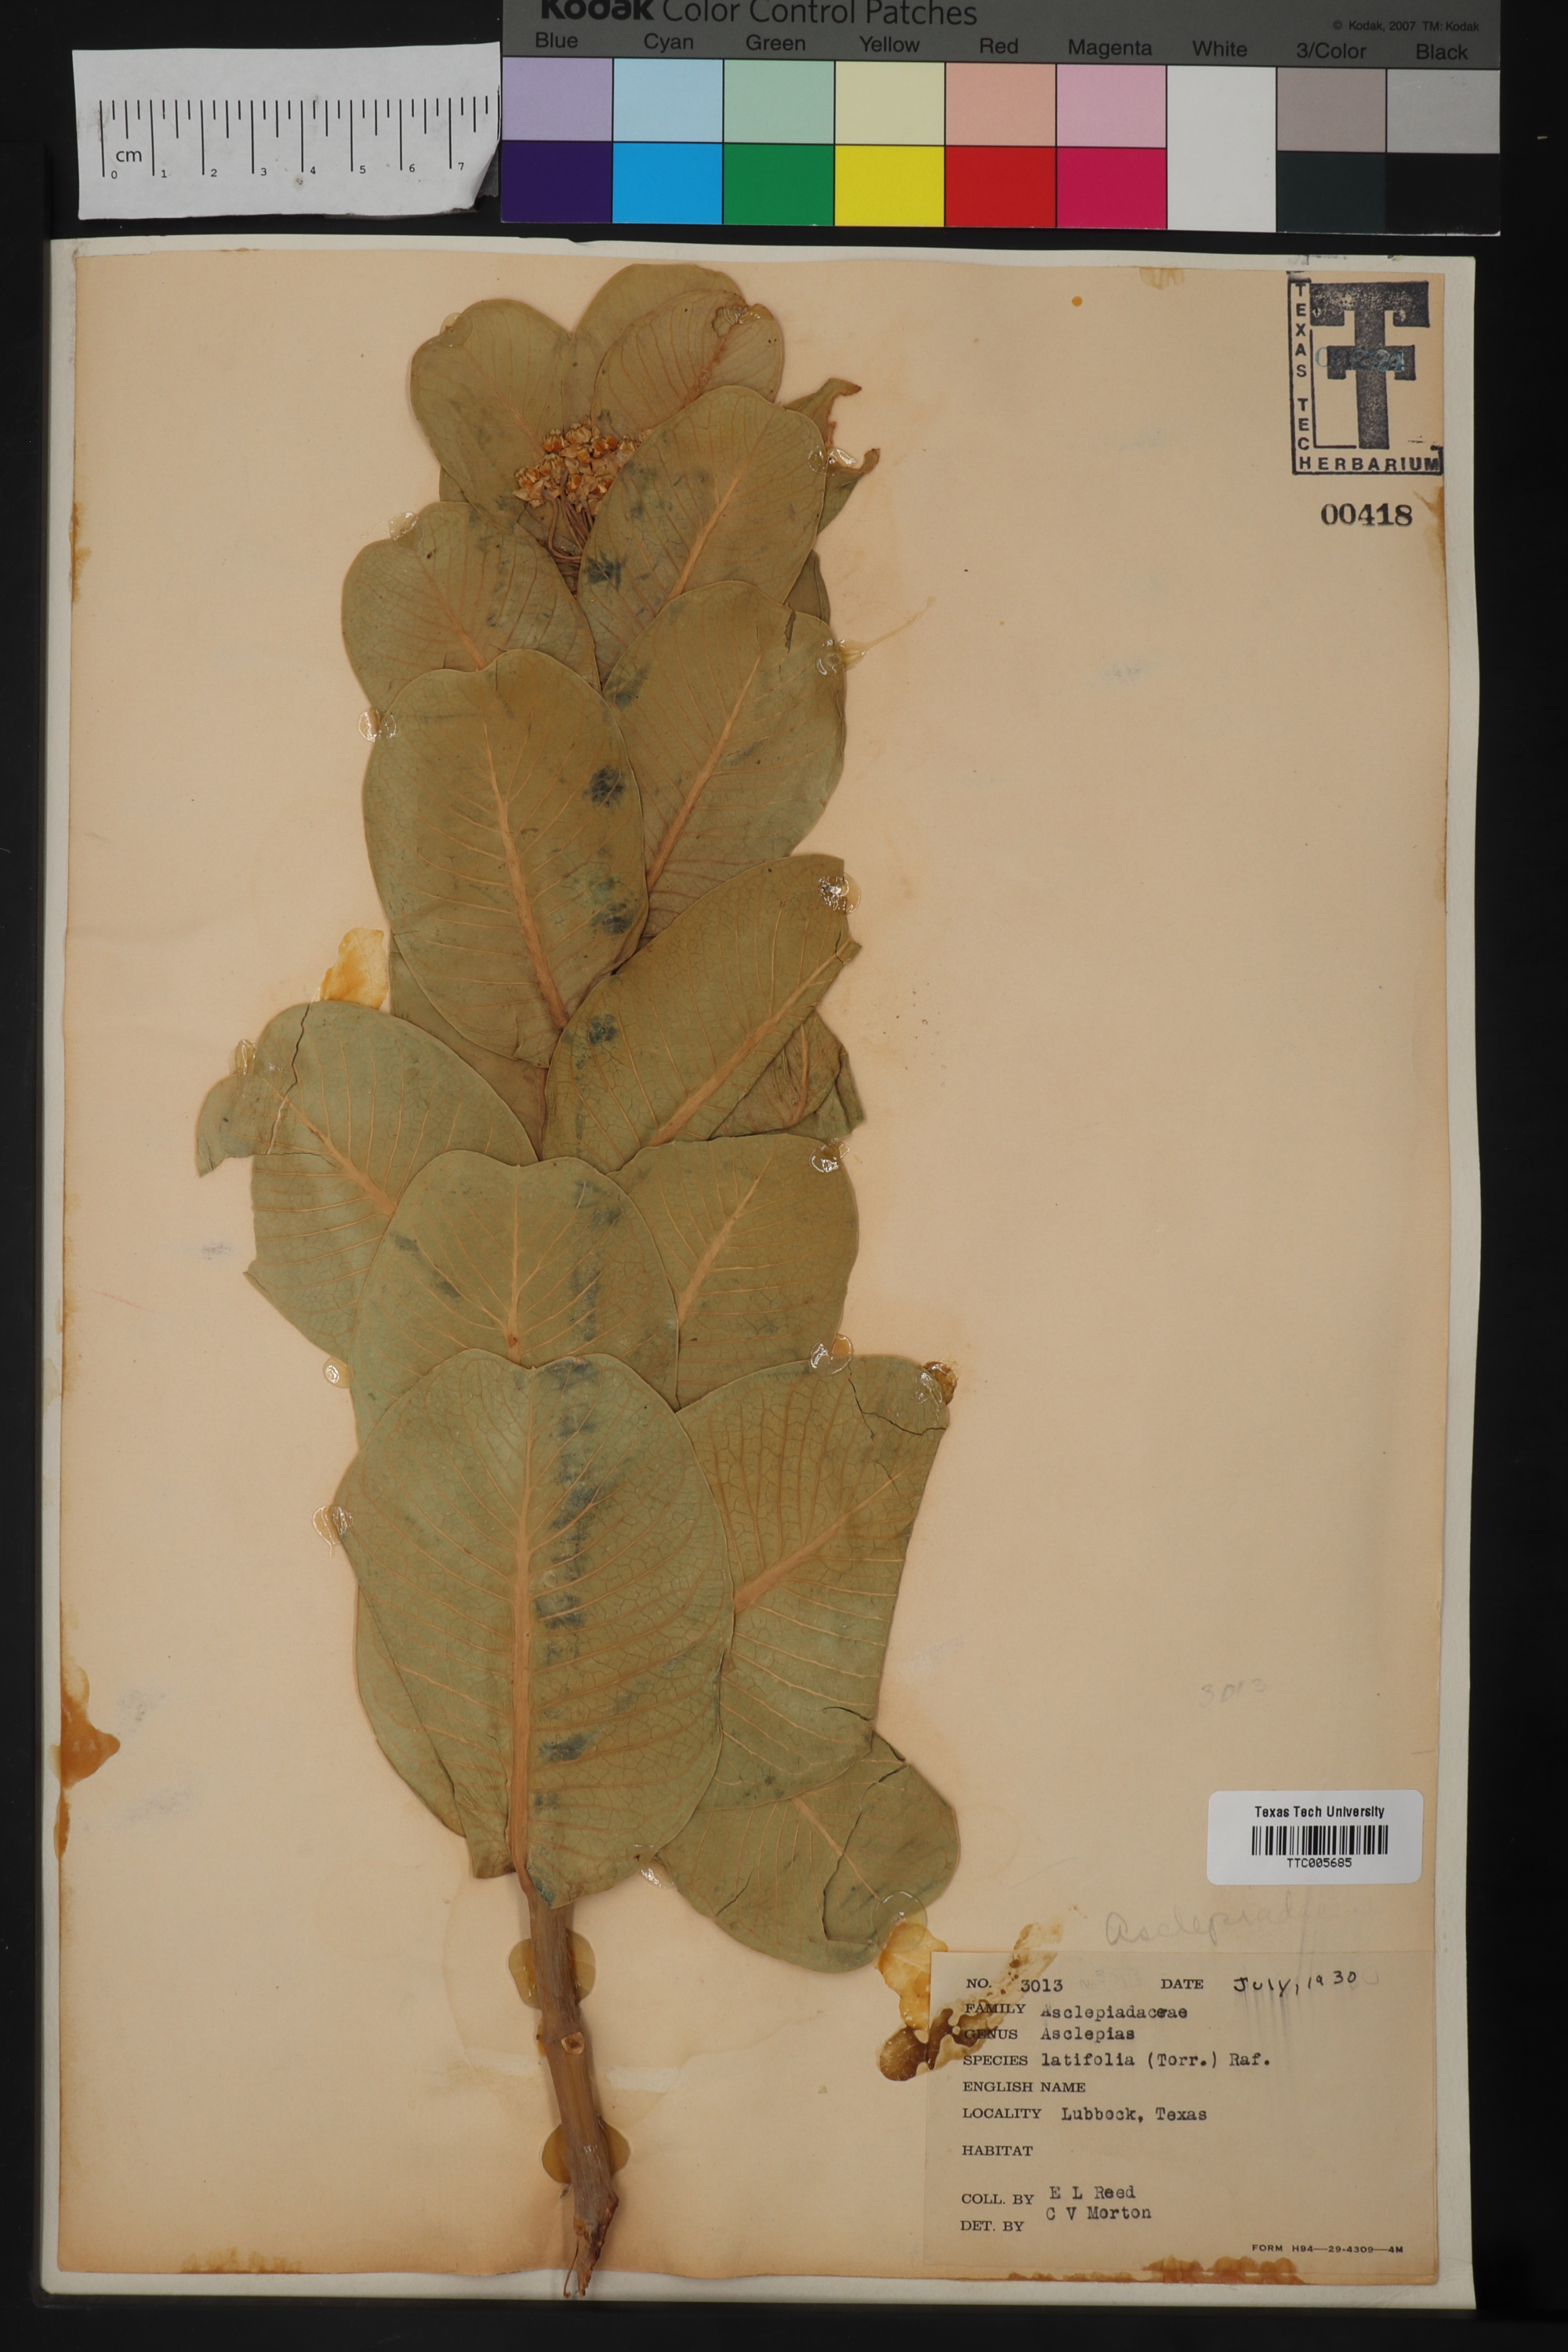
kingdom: Plantae
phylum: Tracheophyta
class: Magnoliopsida
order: Gentianales
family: Apocynaceae
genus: Asclepias
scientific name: Asclepias latifolia
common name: Broadleaf milkweed
